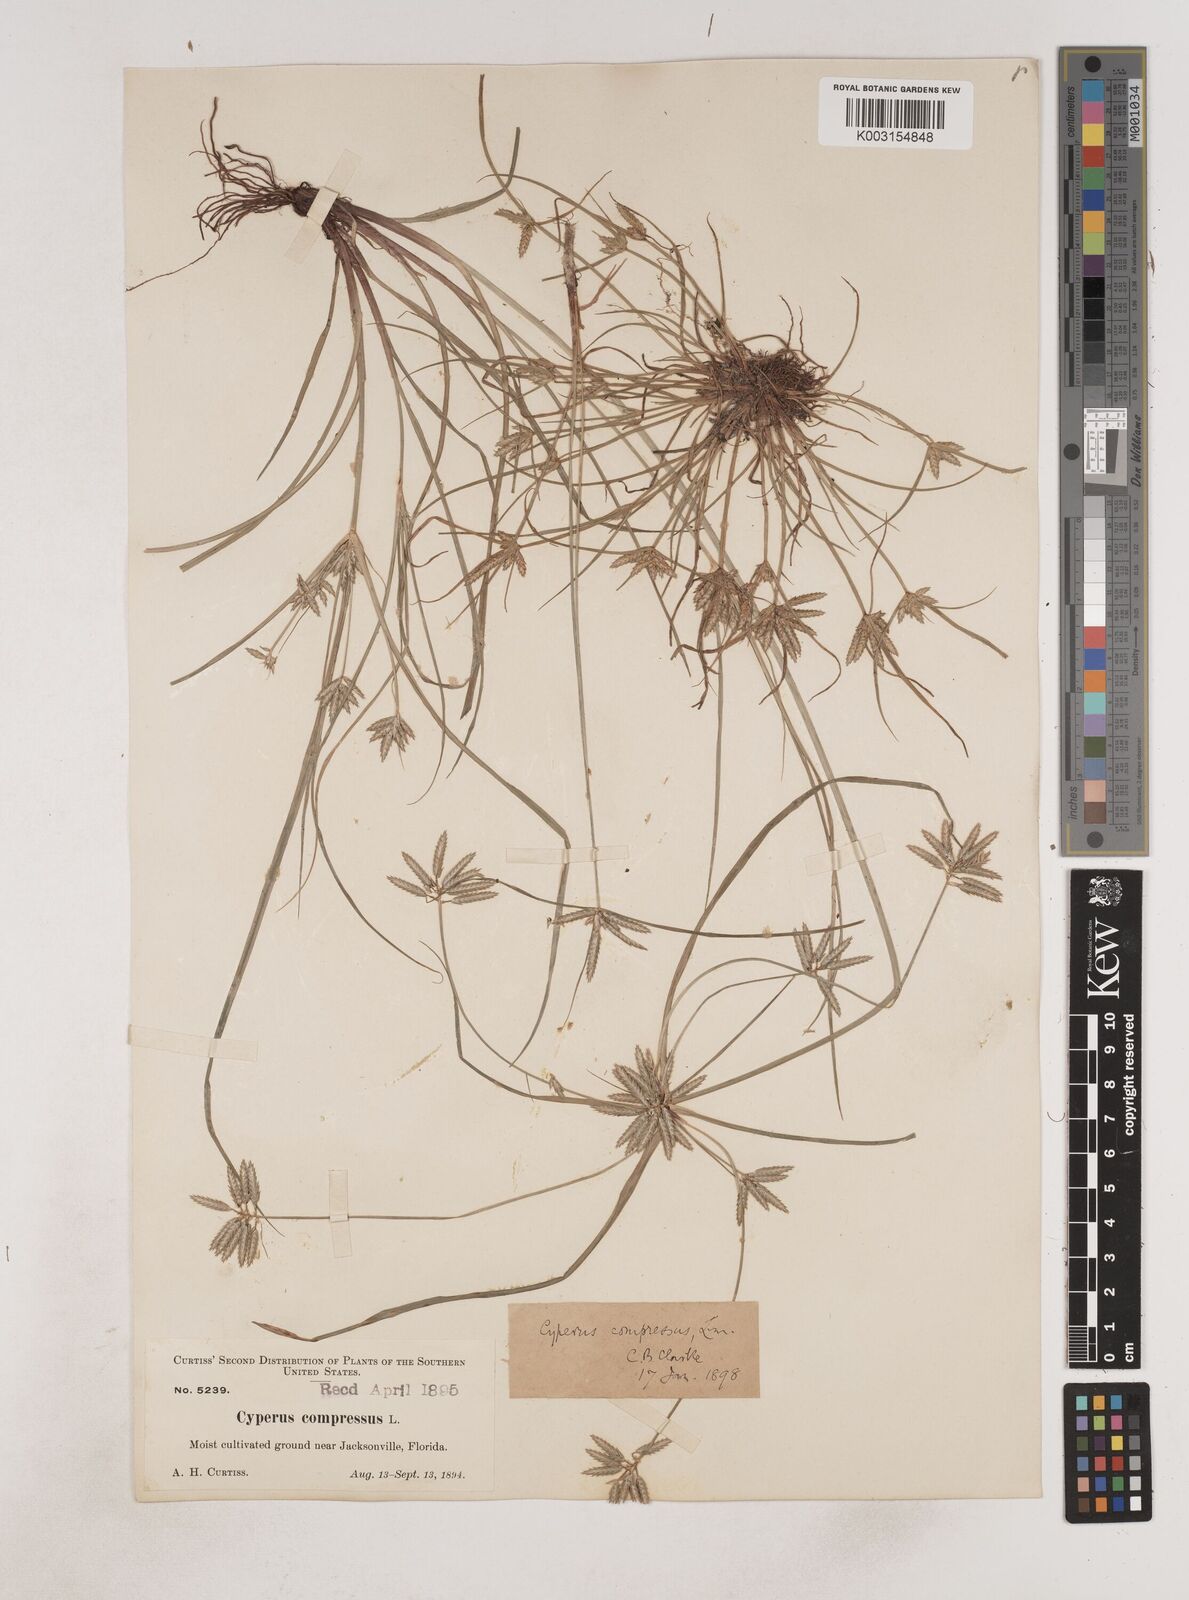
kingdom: Plantae
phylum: Tracheophyta
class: Liliopsida
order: Poales
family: Cyperaceae
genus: Cyperus
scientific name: Cyperus compressus
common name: Poorland flatsedge
